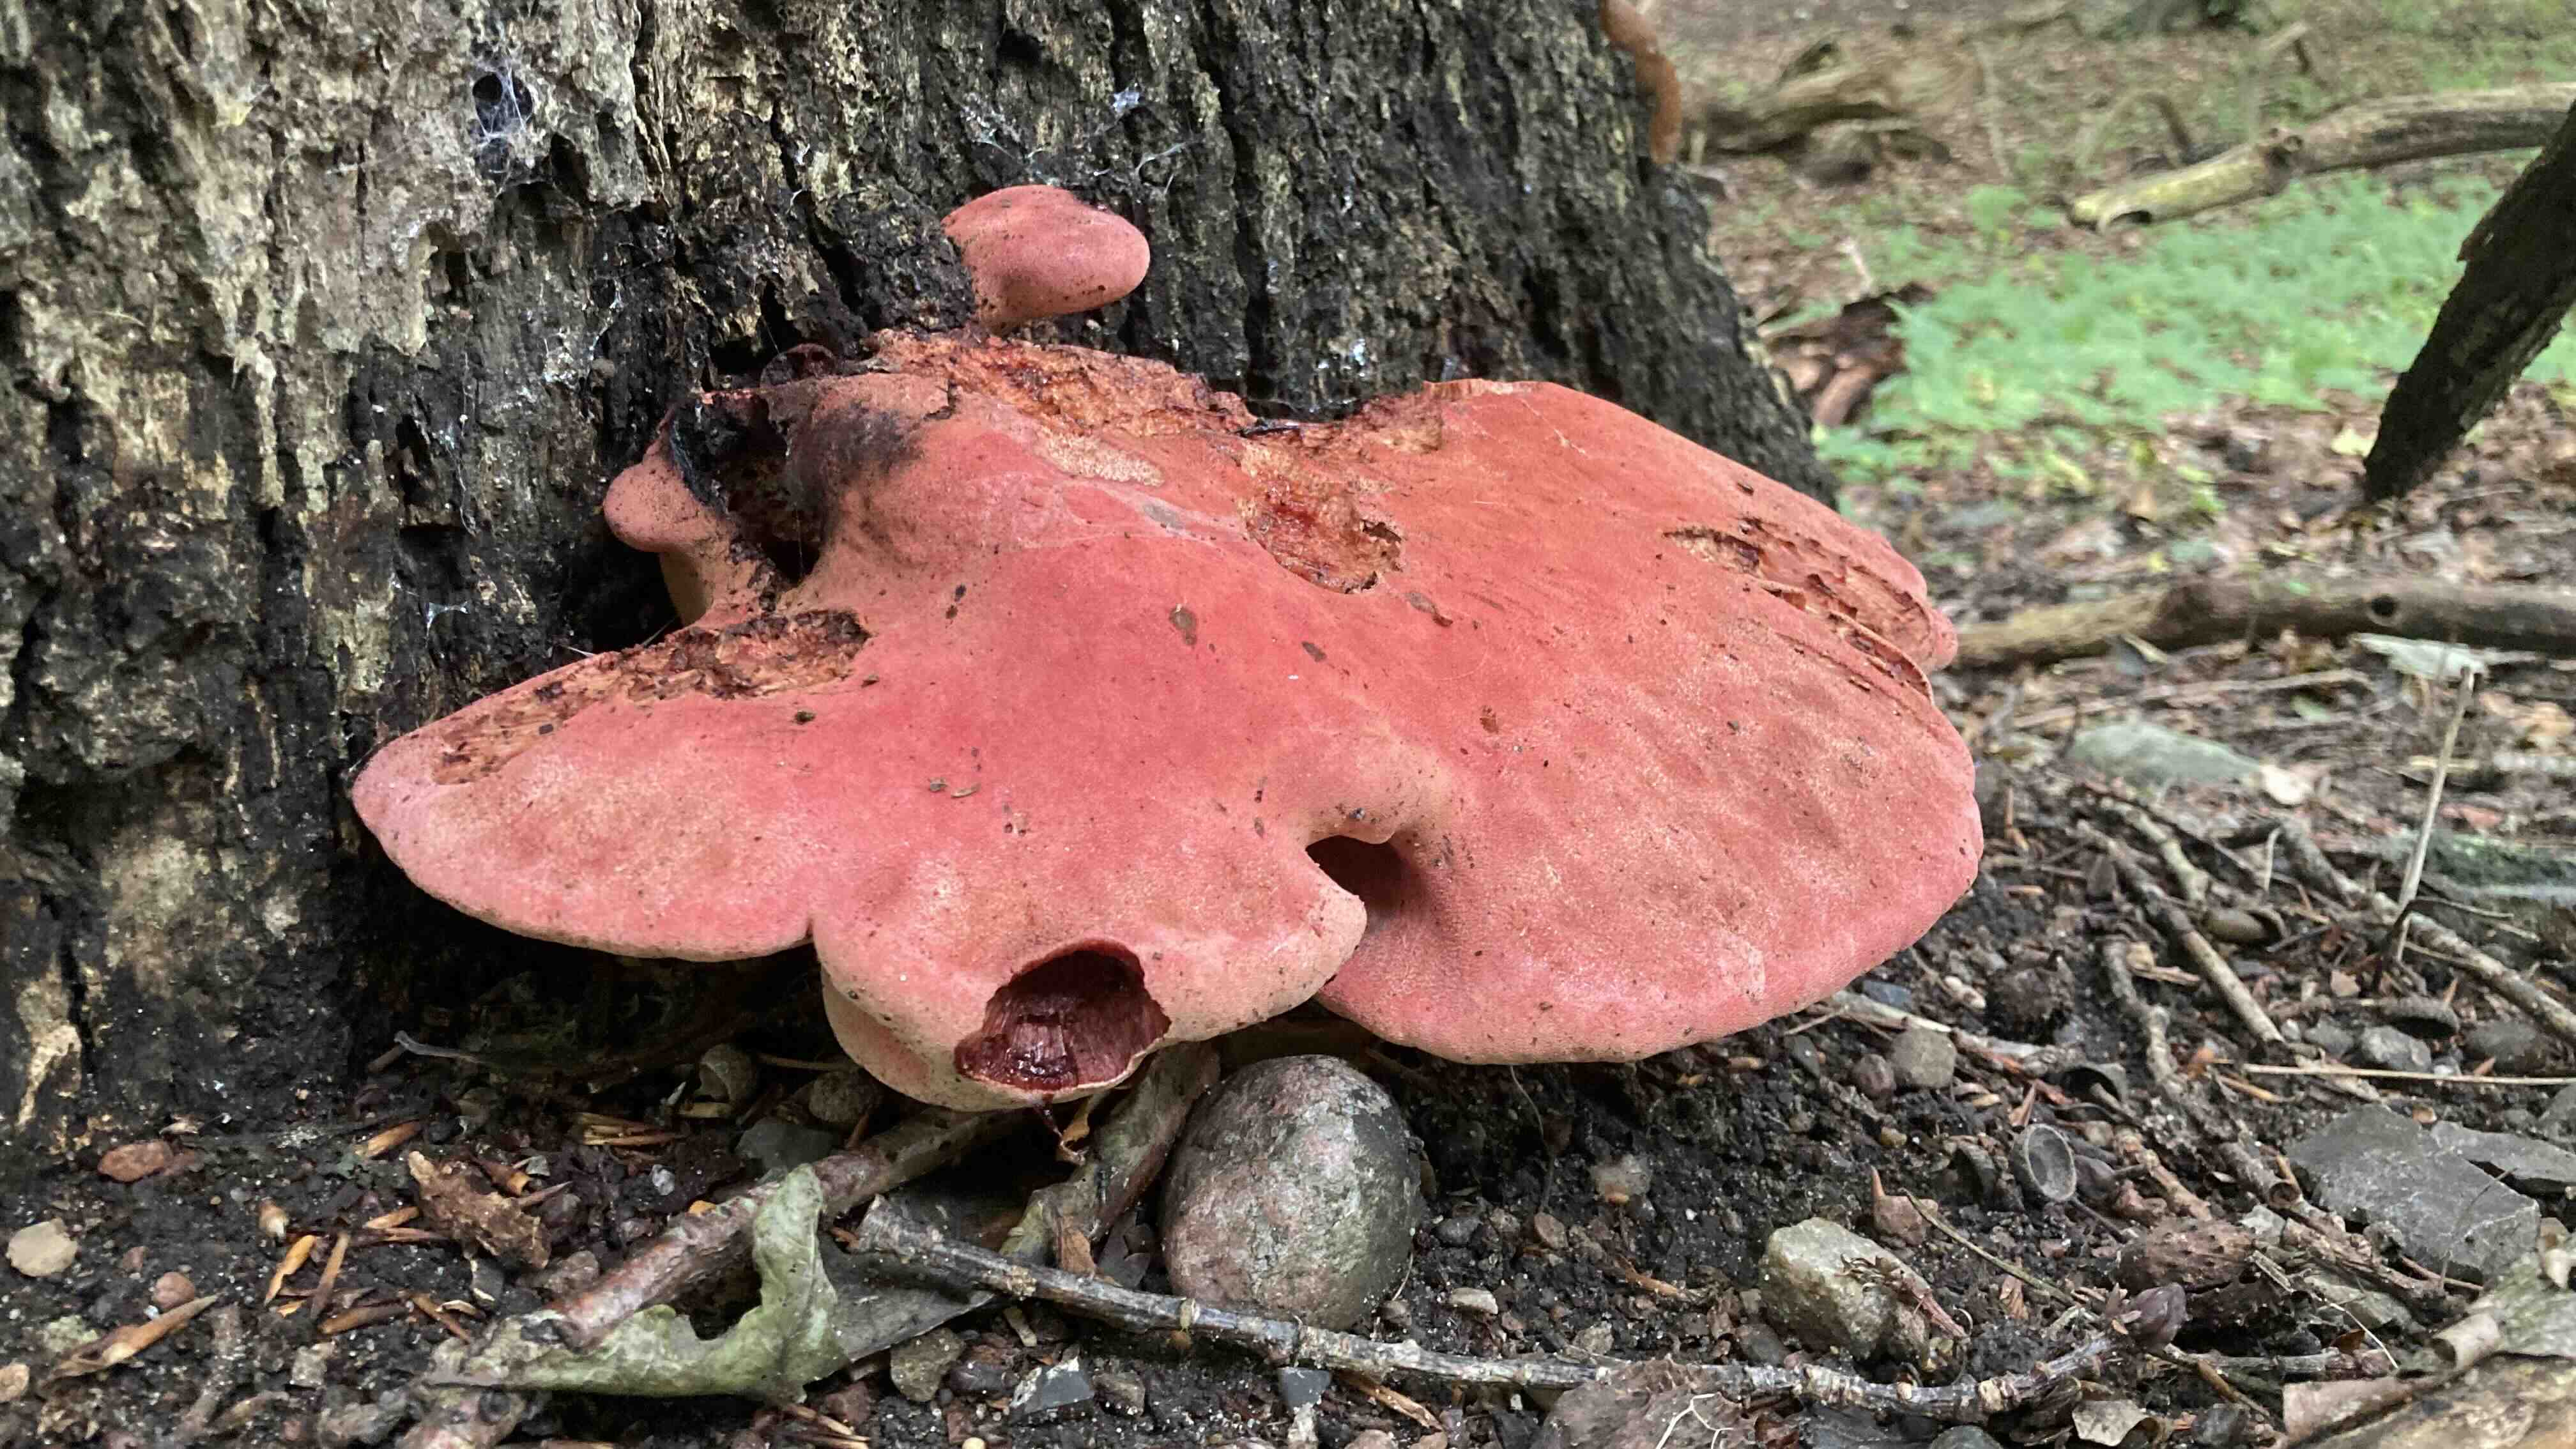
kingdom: Fungi
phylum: Basidiomycota
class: Agaricomycetes
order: Agaricales
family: Fistulinaceae
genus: Fistulina
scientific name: Fistulina hepatica
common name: oksetunge
